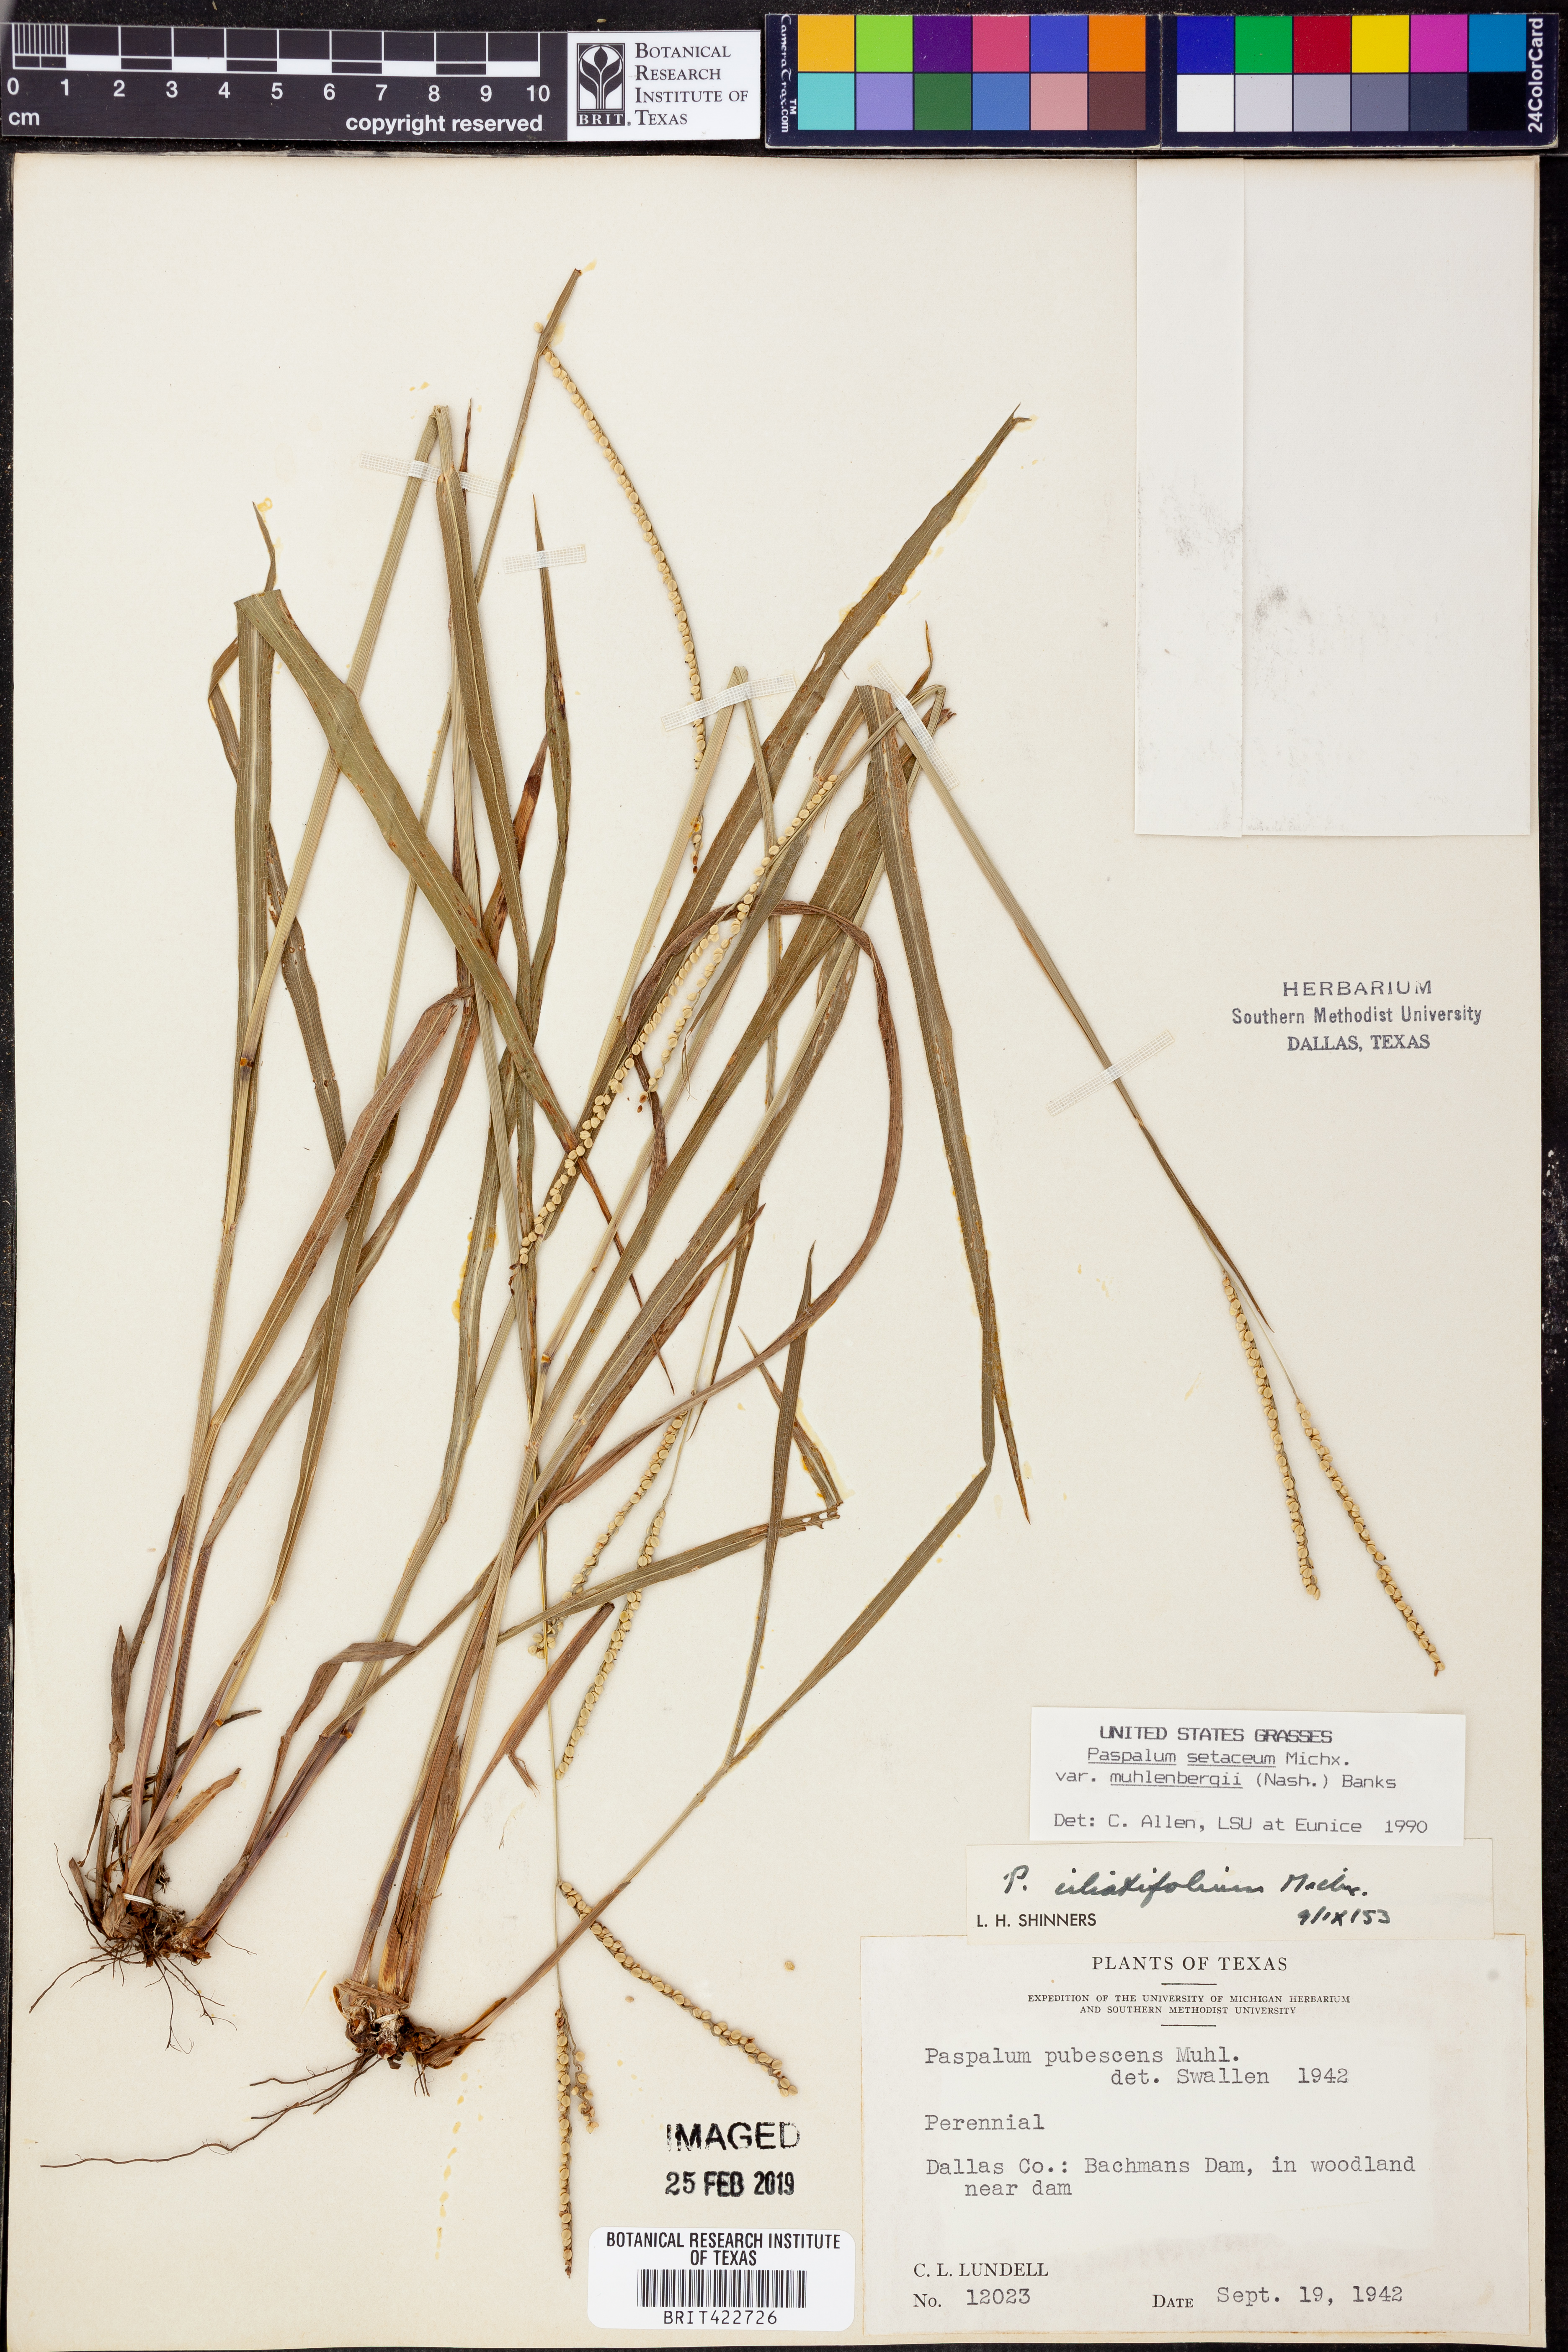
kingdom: Plantae
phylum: Tracheophyta
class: Liliopsida
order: Poales
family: Poaceae
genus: Paspalum
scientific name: Paspalum setaceum
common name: Slender paspalum
